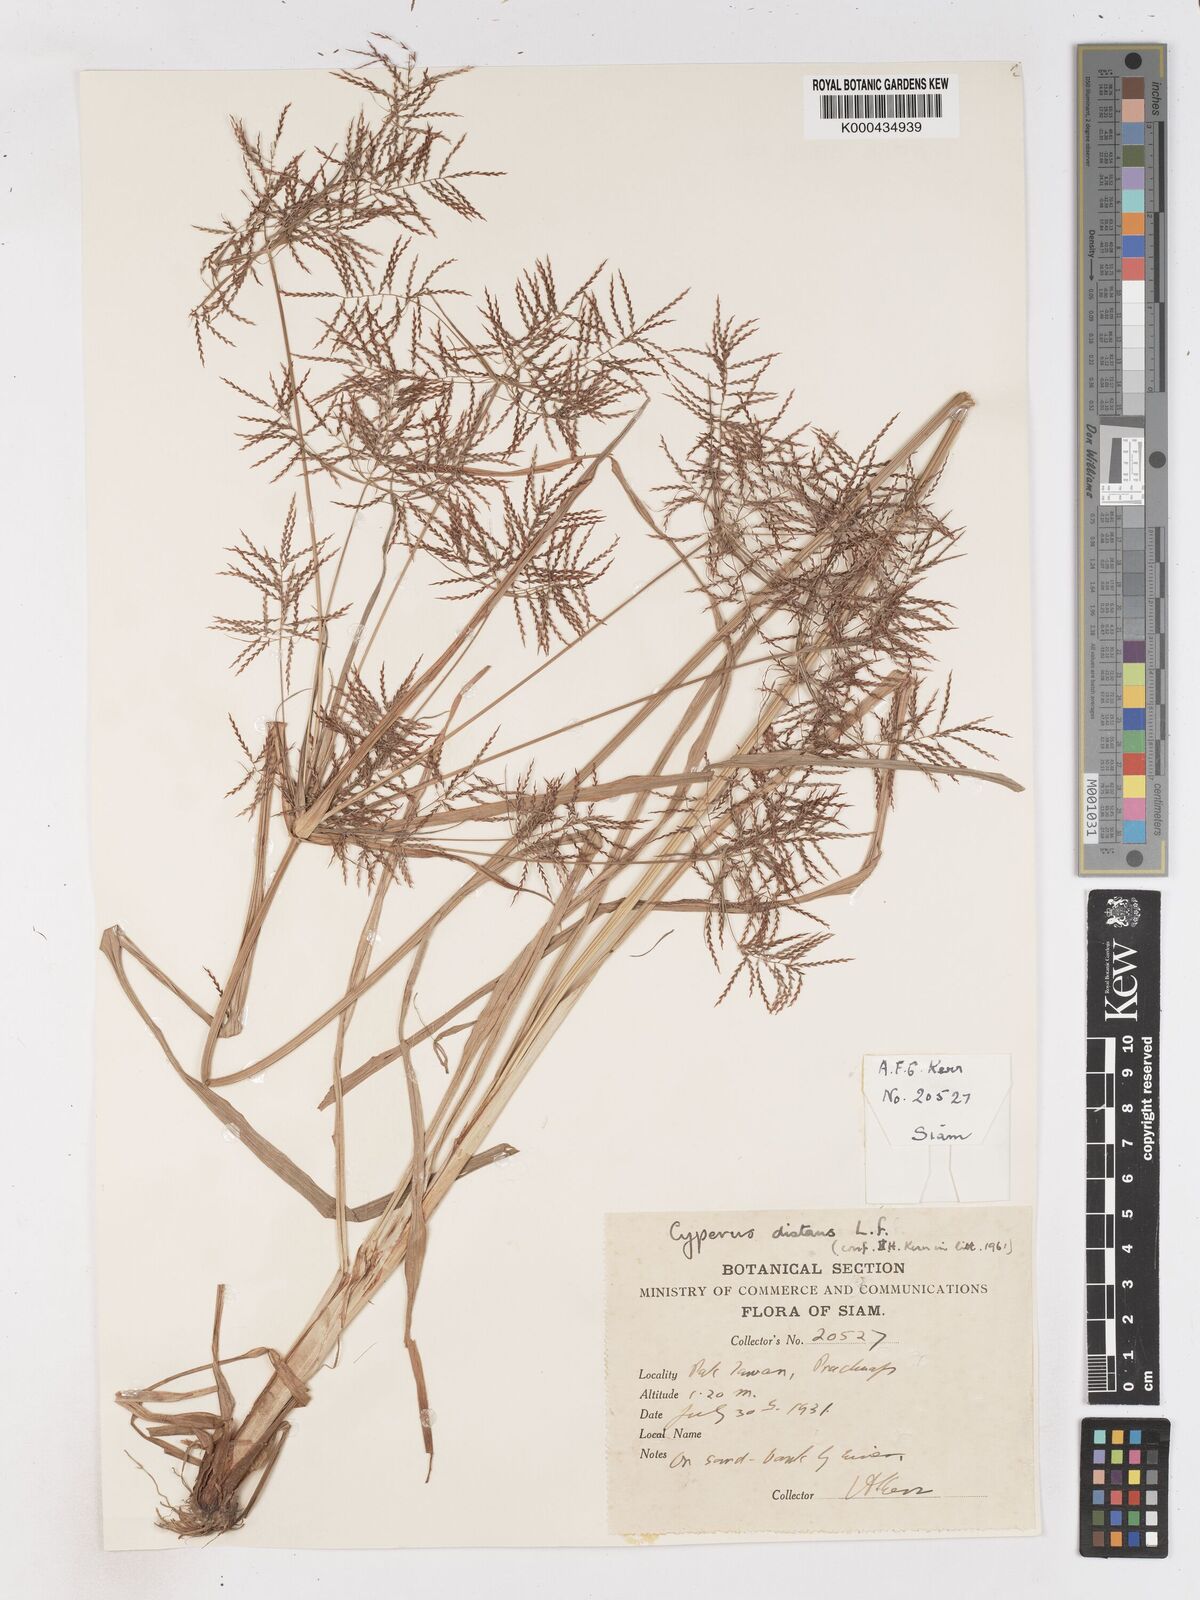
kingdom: Plantae
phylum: Tracheophyta
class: Liliopsida
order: Poales
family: Cyperaceae
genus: Cyperus
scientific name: Cyperus distans
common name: Slender cyperus
